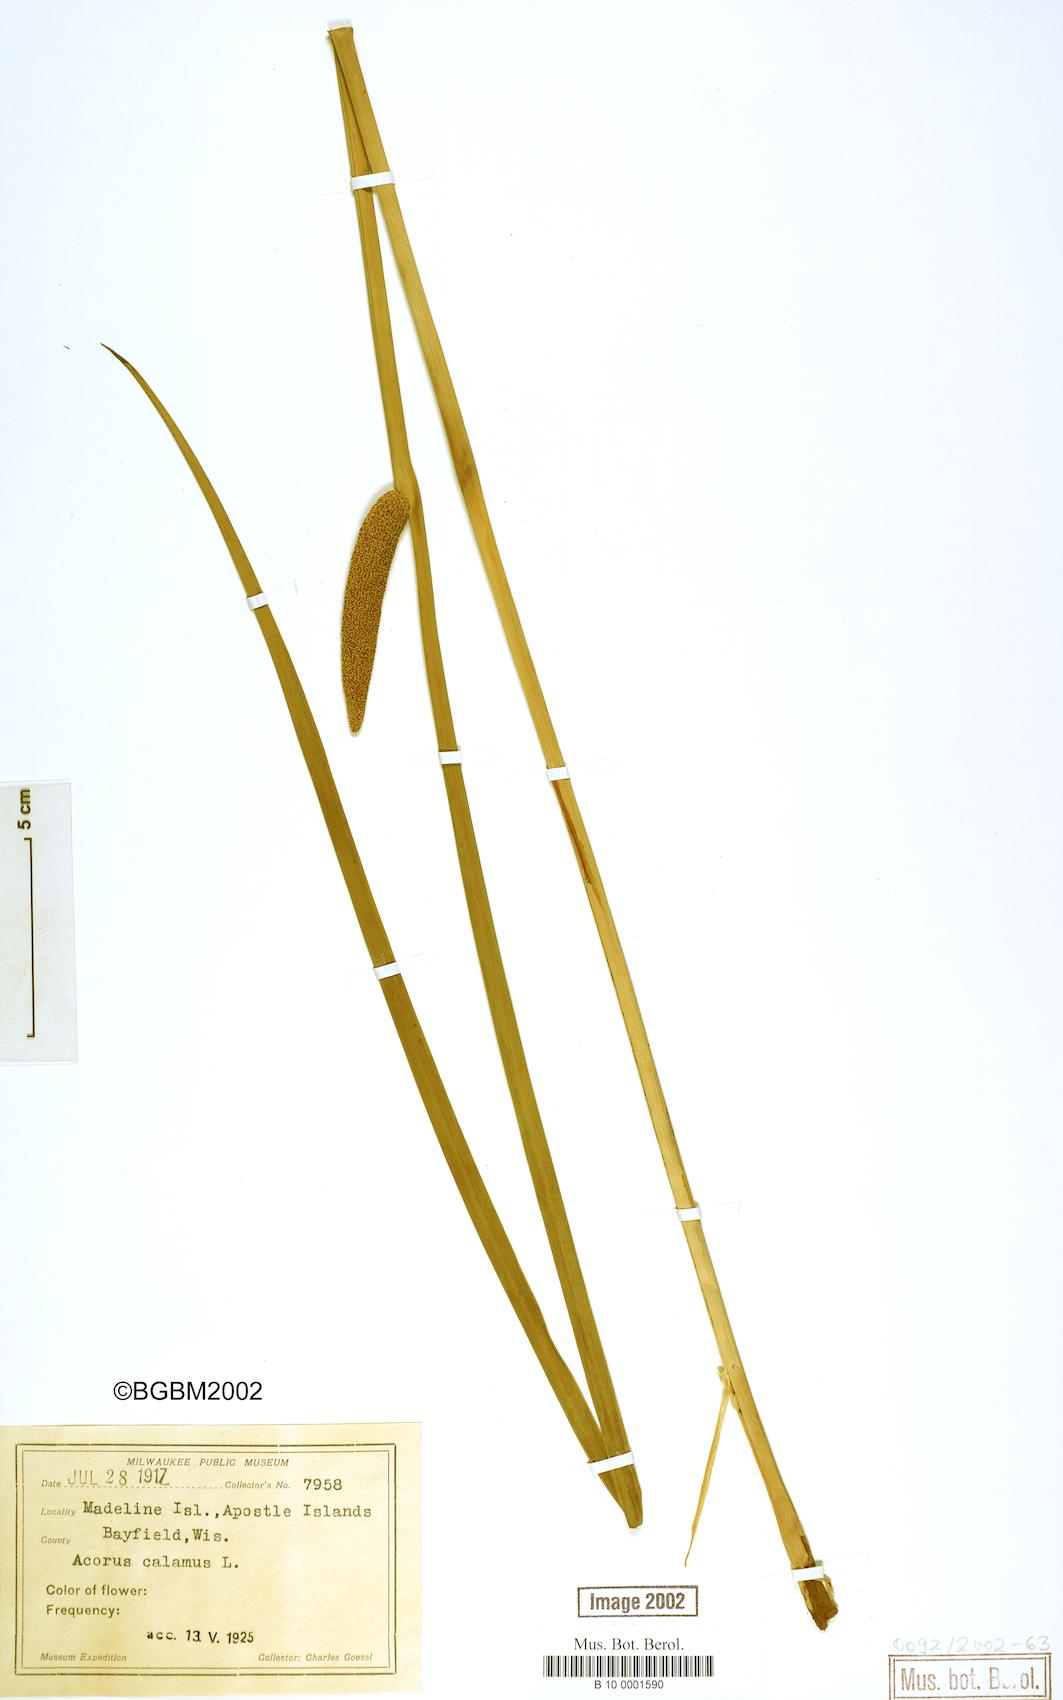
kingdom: Plantae
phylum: Tracheophyta
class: Liliopsida
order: Acorales
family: Acoraceae
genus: Acorus
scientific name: Acorus calamus
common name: Sweet-flag
